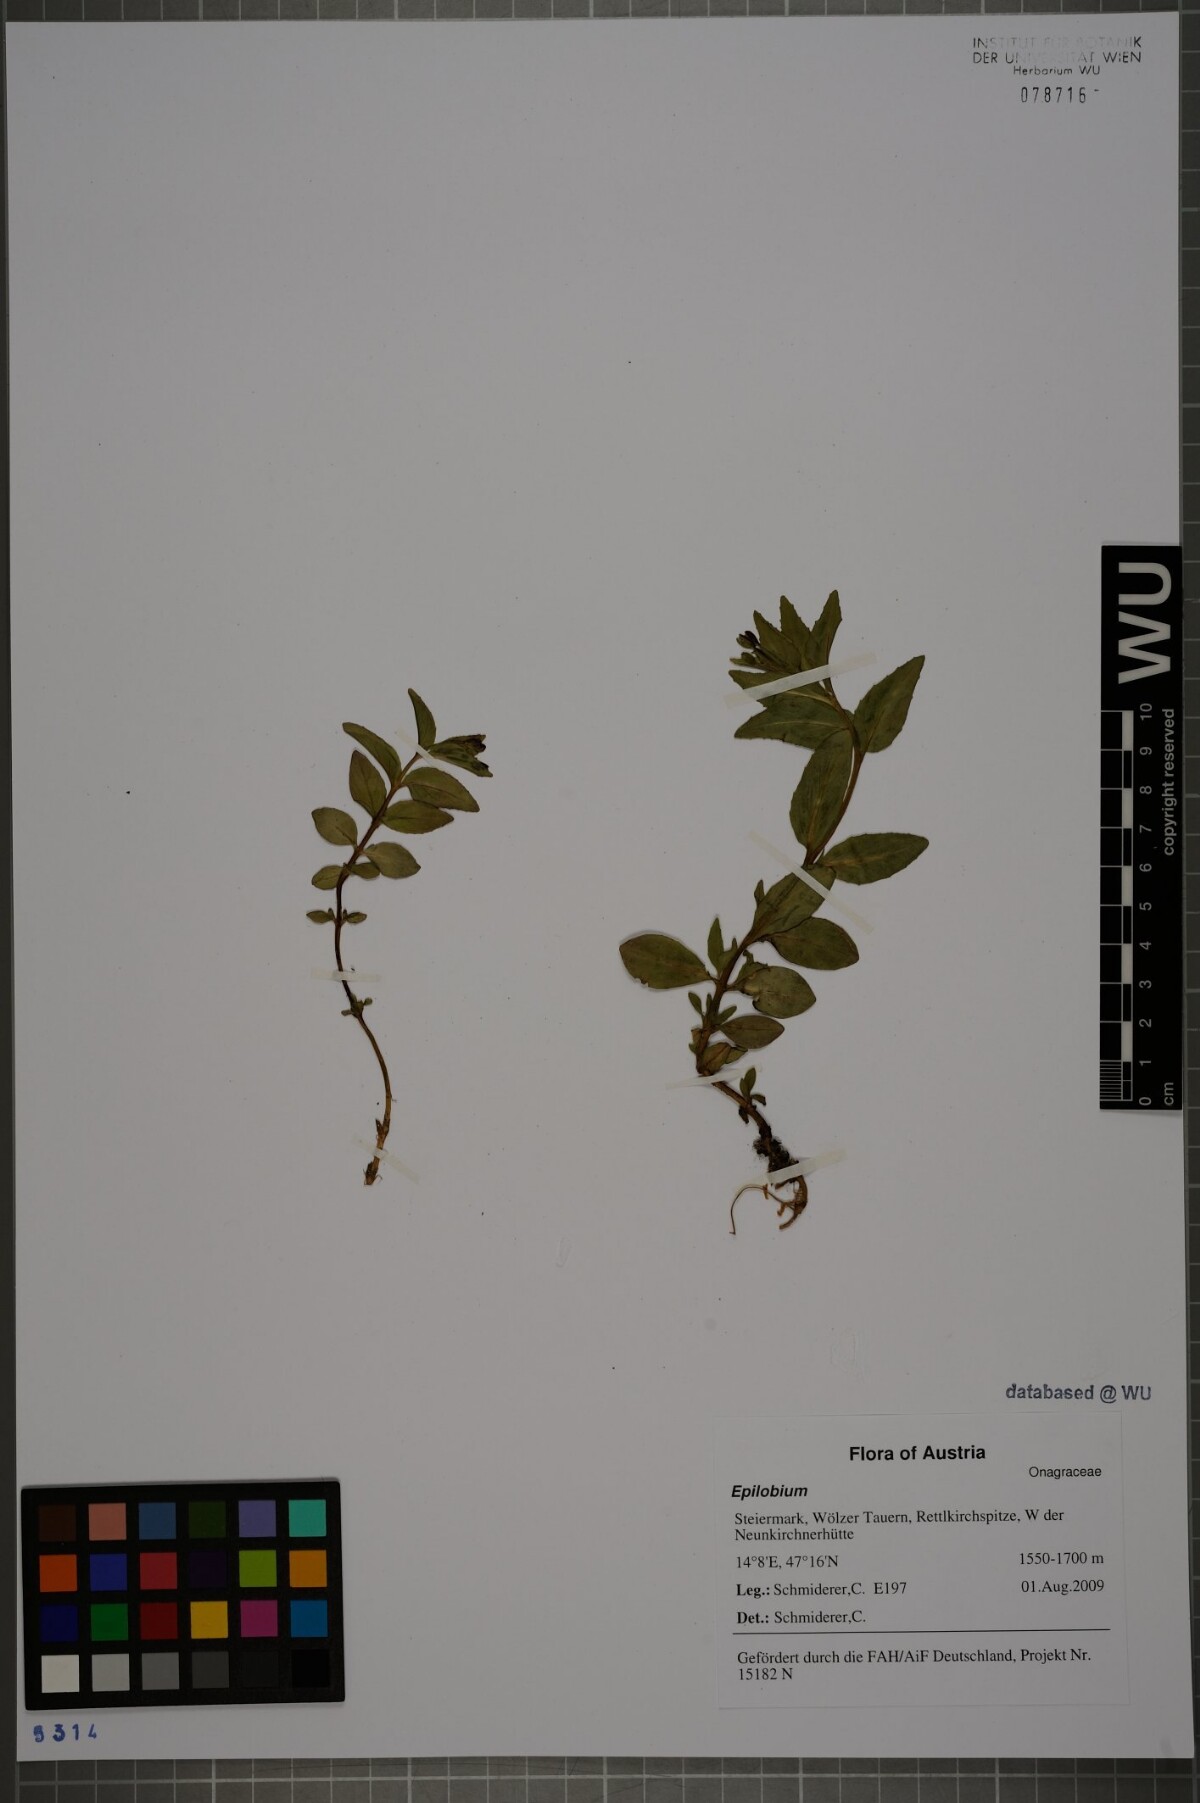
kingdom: Plantae
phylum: Tracheophyta
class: Magnoliopsida
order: Myrtales
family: Onagraceae
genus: Epilobium
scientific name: Epilobium alsinifolium
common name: Chickweed willowherb
